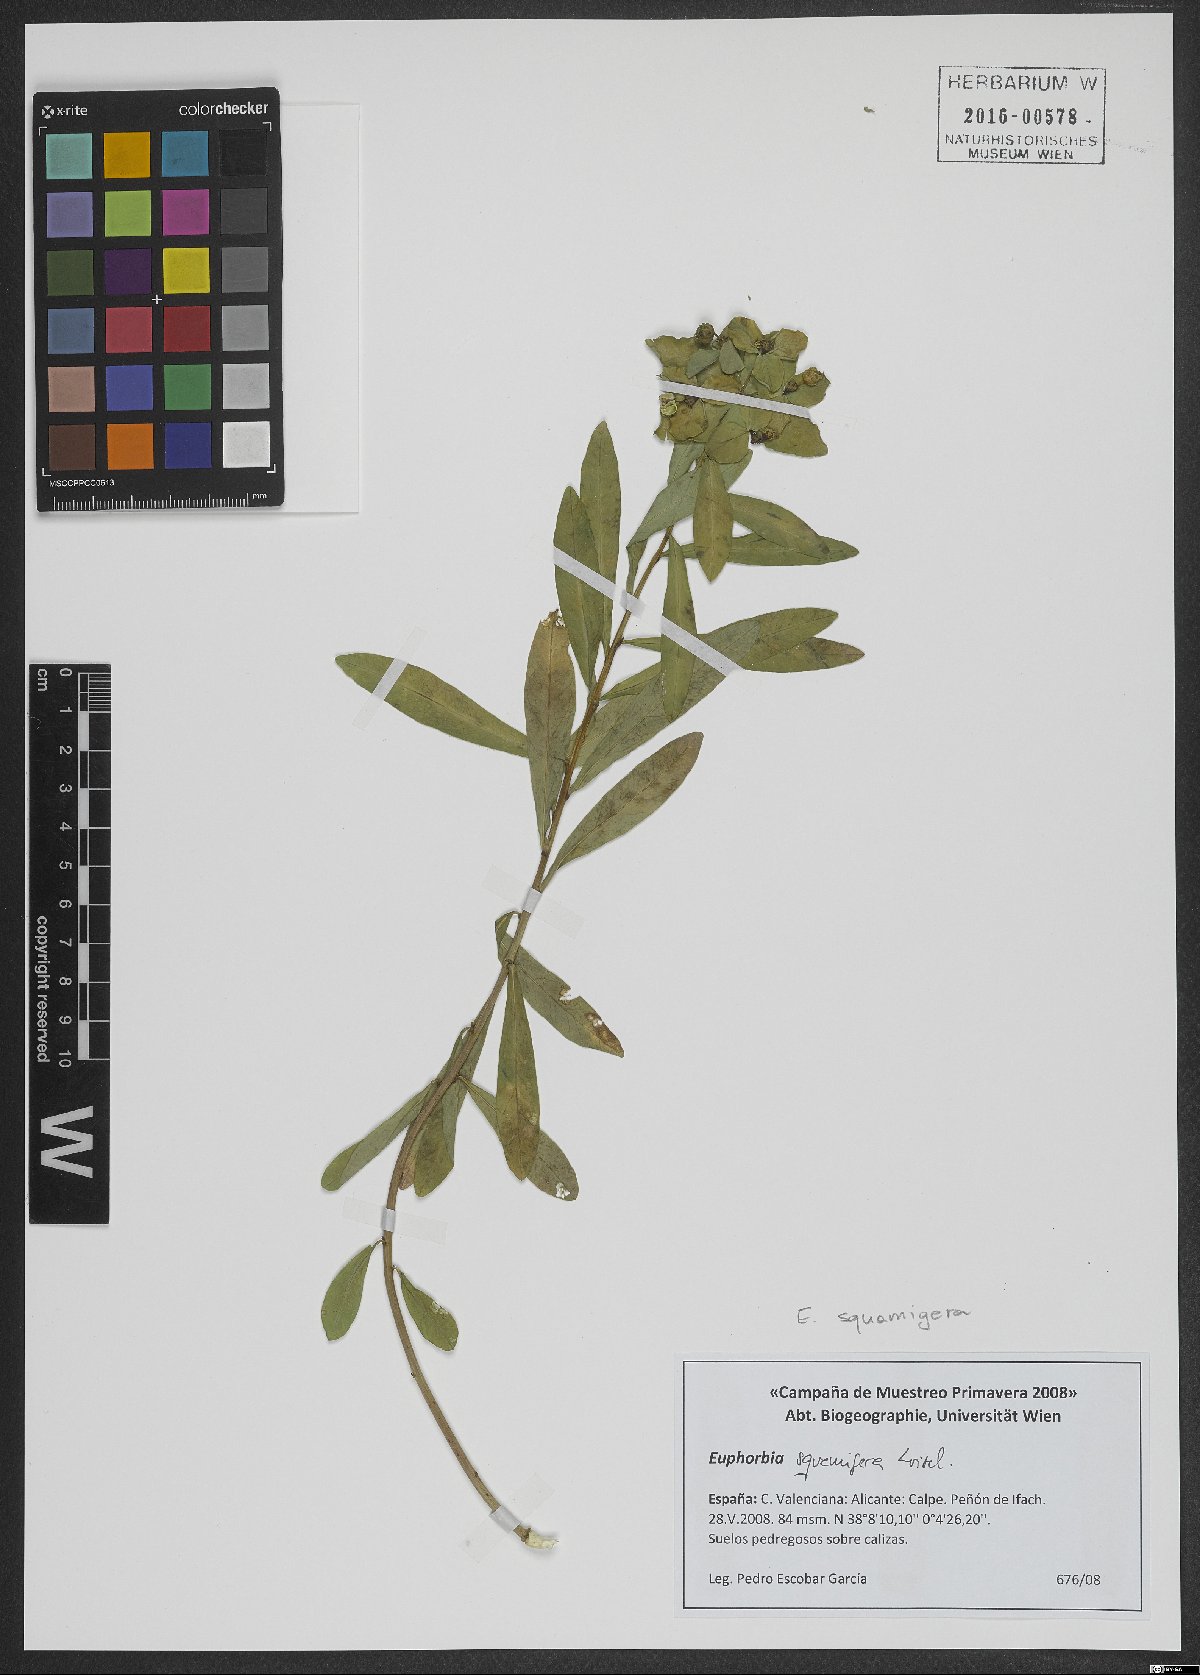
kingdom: Plantae
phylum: Tracheophyta
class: Magnoliopsida
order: Malpighiales
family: Euphorbiaceae
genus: Euphorbia
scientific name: Euphorbia squamigera
